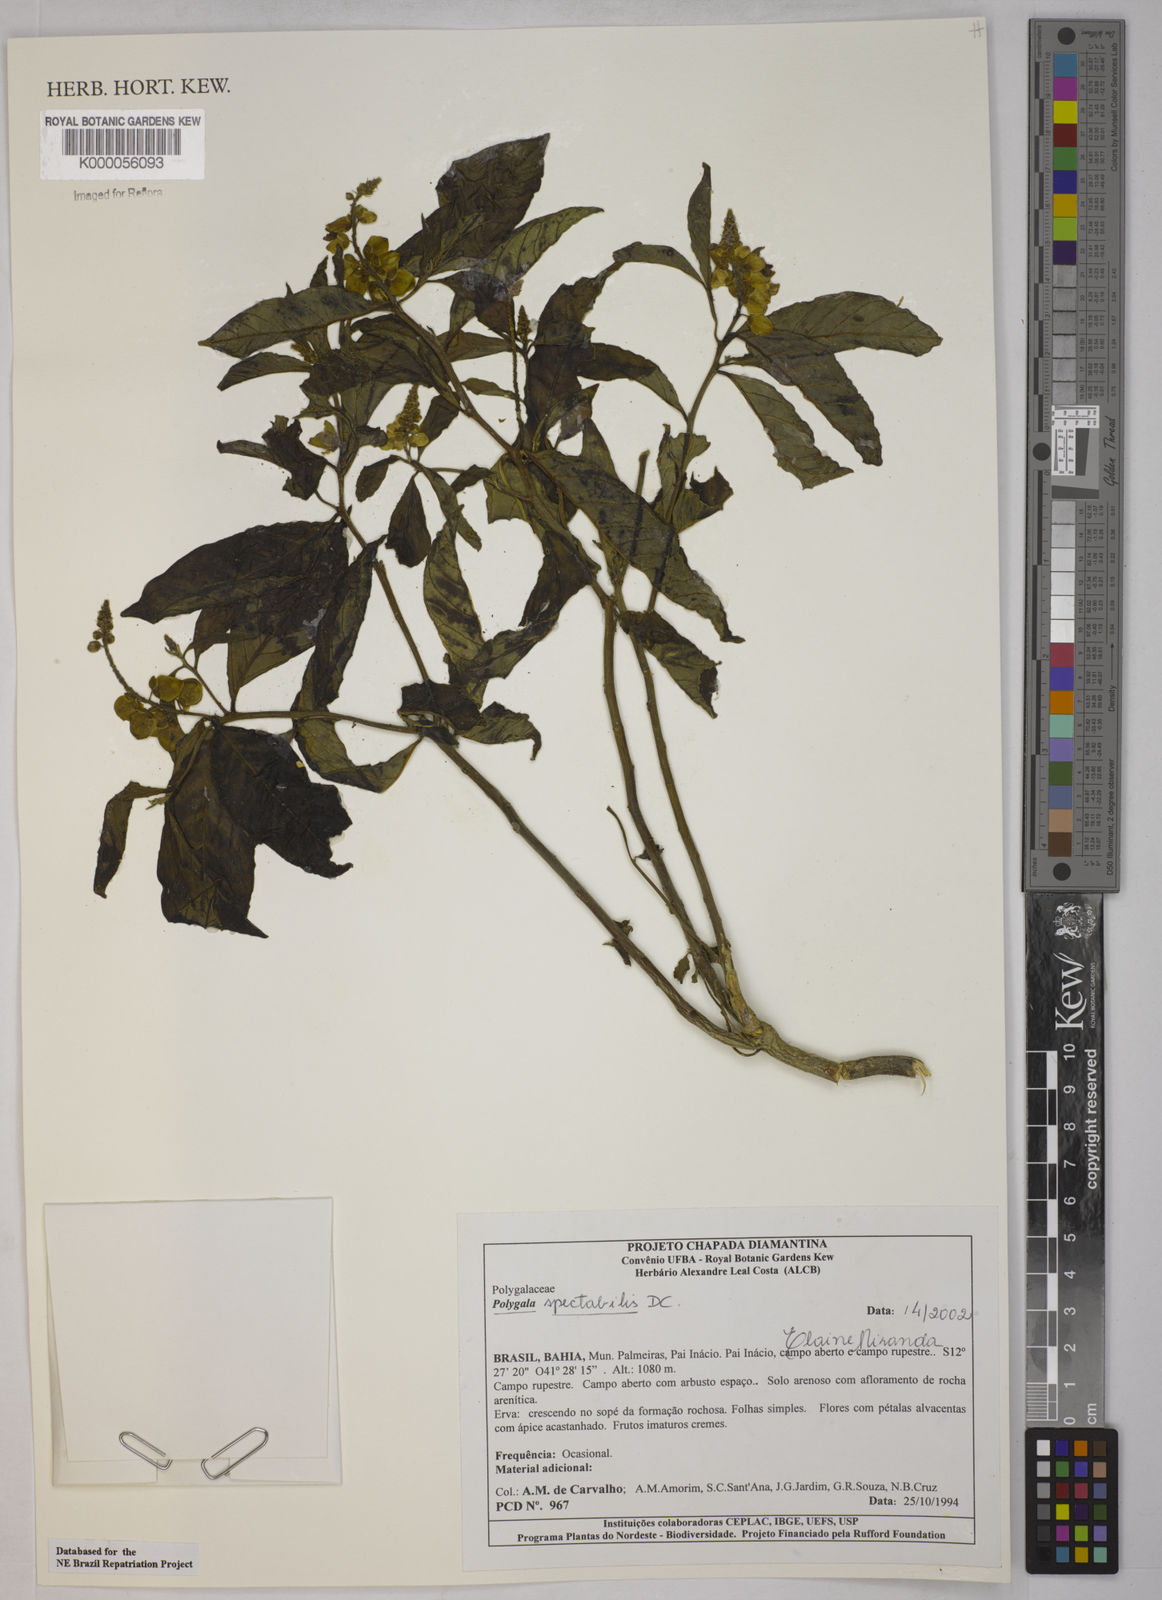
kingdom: Plantae
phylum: Tracheophyta
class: Magnoliopsida
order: Fabales
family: Polygalaceae
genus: Caamembeca
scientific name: Caamembeca spectabilis
